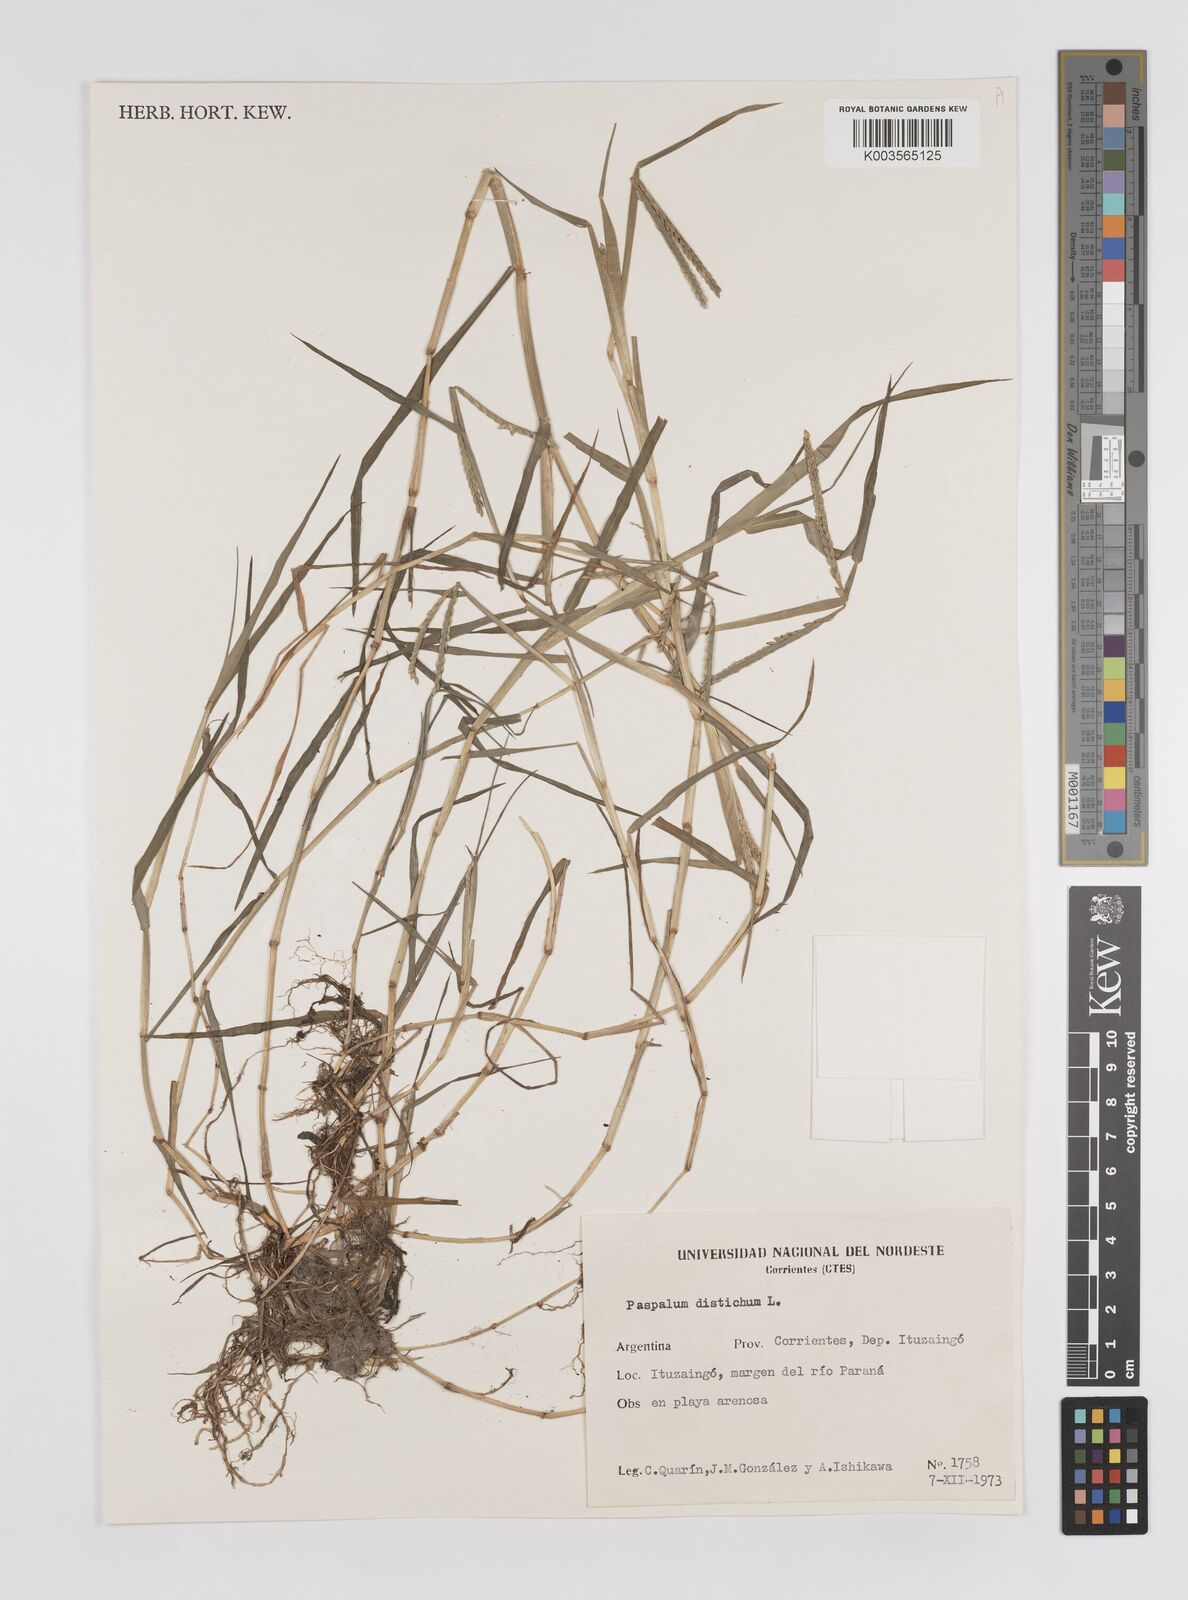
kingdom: Plantae
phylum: Tracheophyta
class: Liliopsida
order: Poales
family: Poaceae
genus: Paspalum
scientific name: Paspalum distichum
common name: Knotgrass
